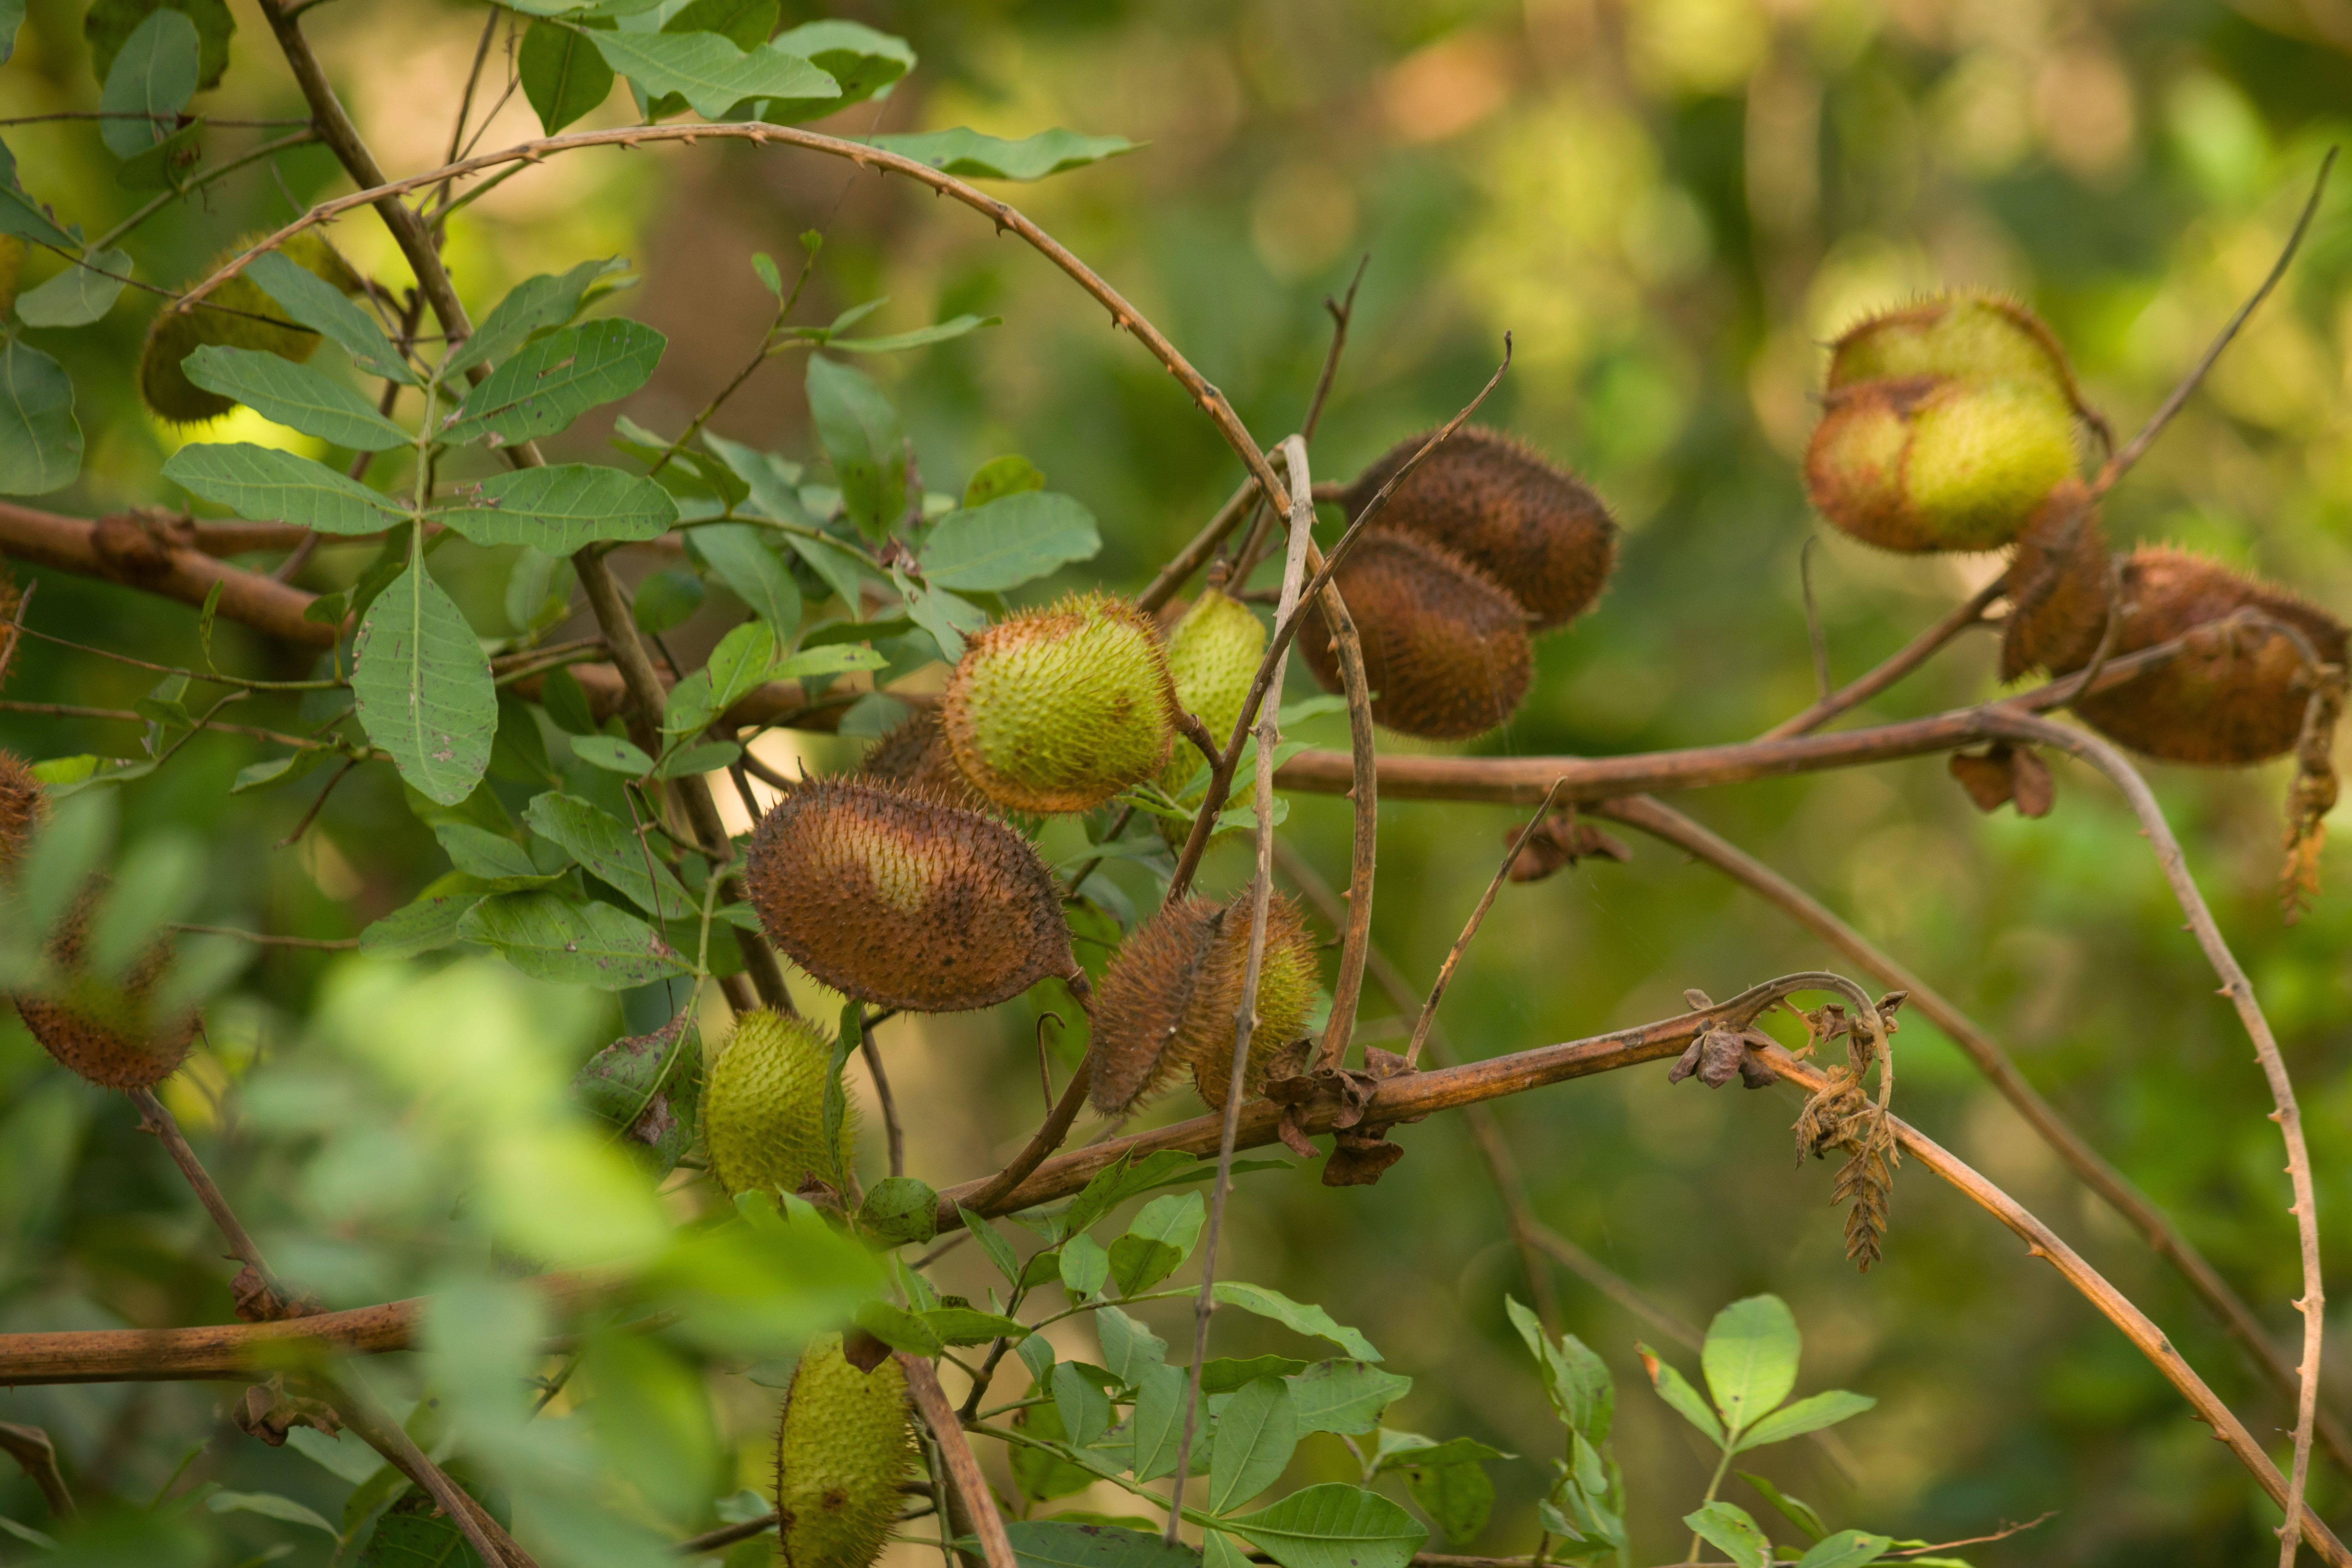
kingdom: Plantae
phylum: Tracheophyta
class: Magnoliopsida
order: Fabales
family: Fabaceae
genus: Guilandina
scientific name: Guilandina bonduc
